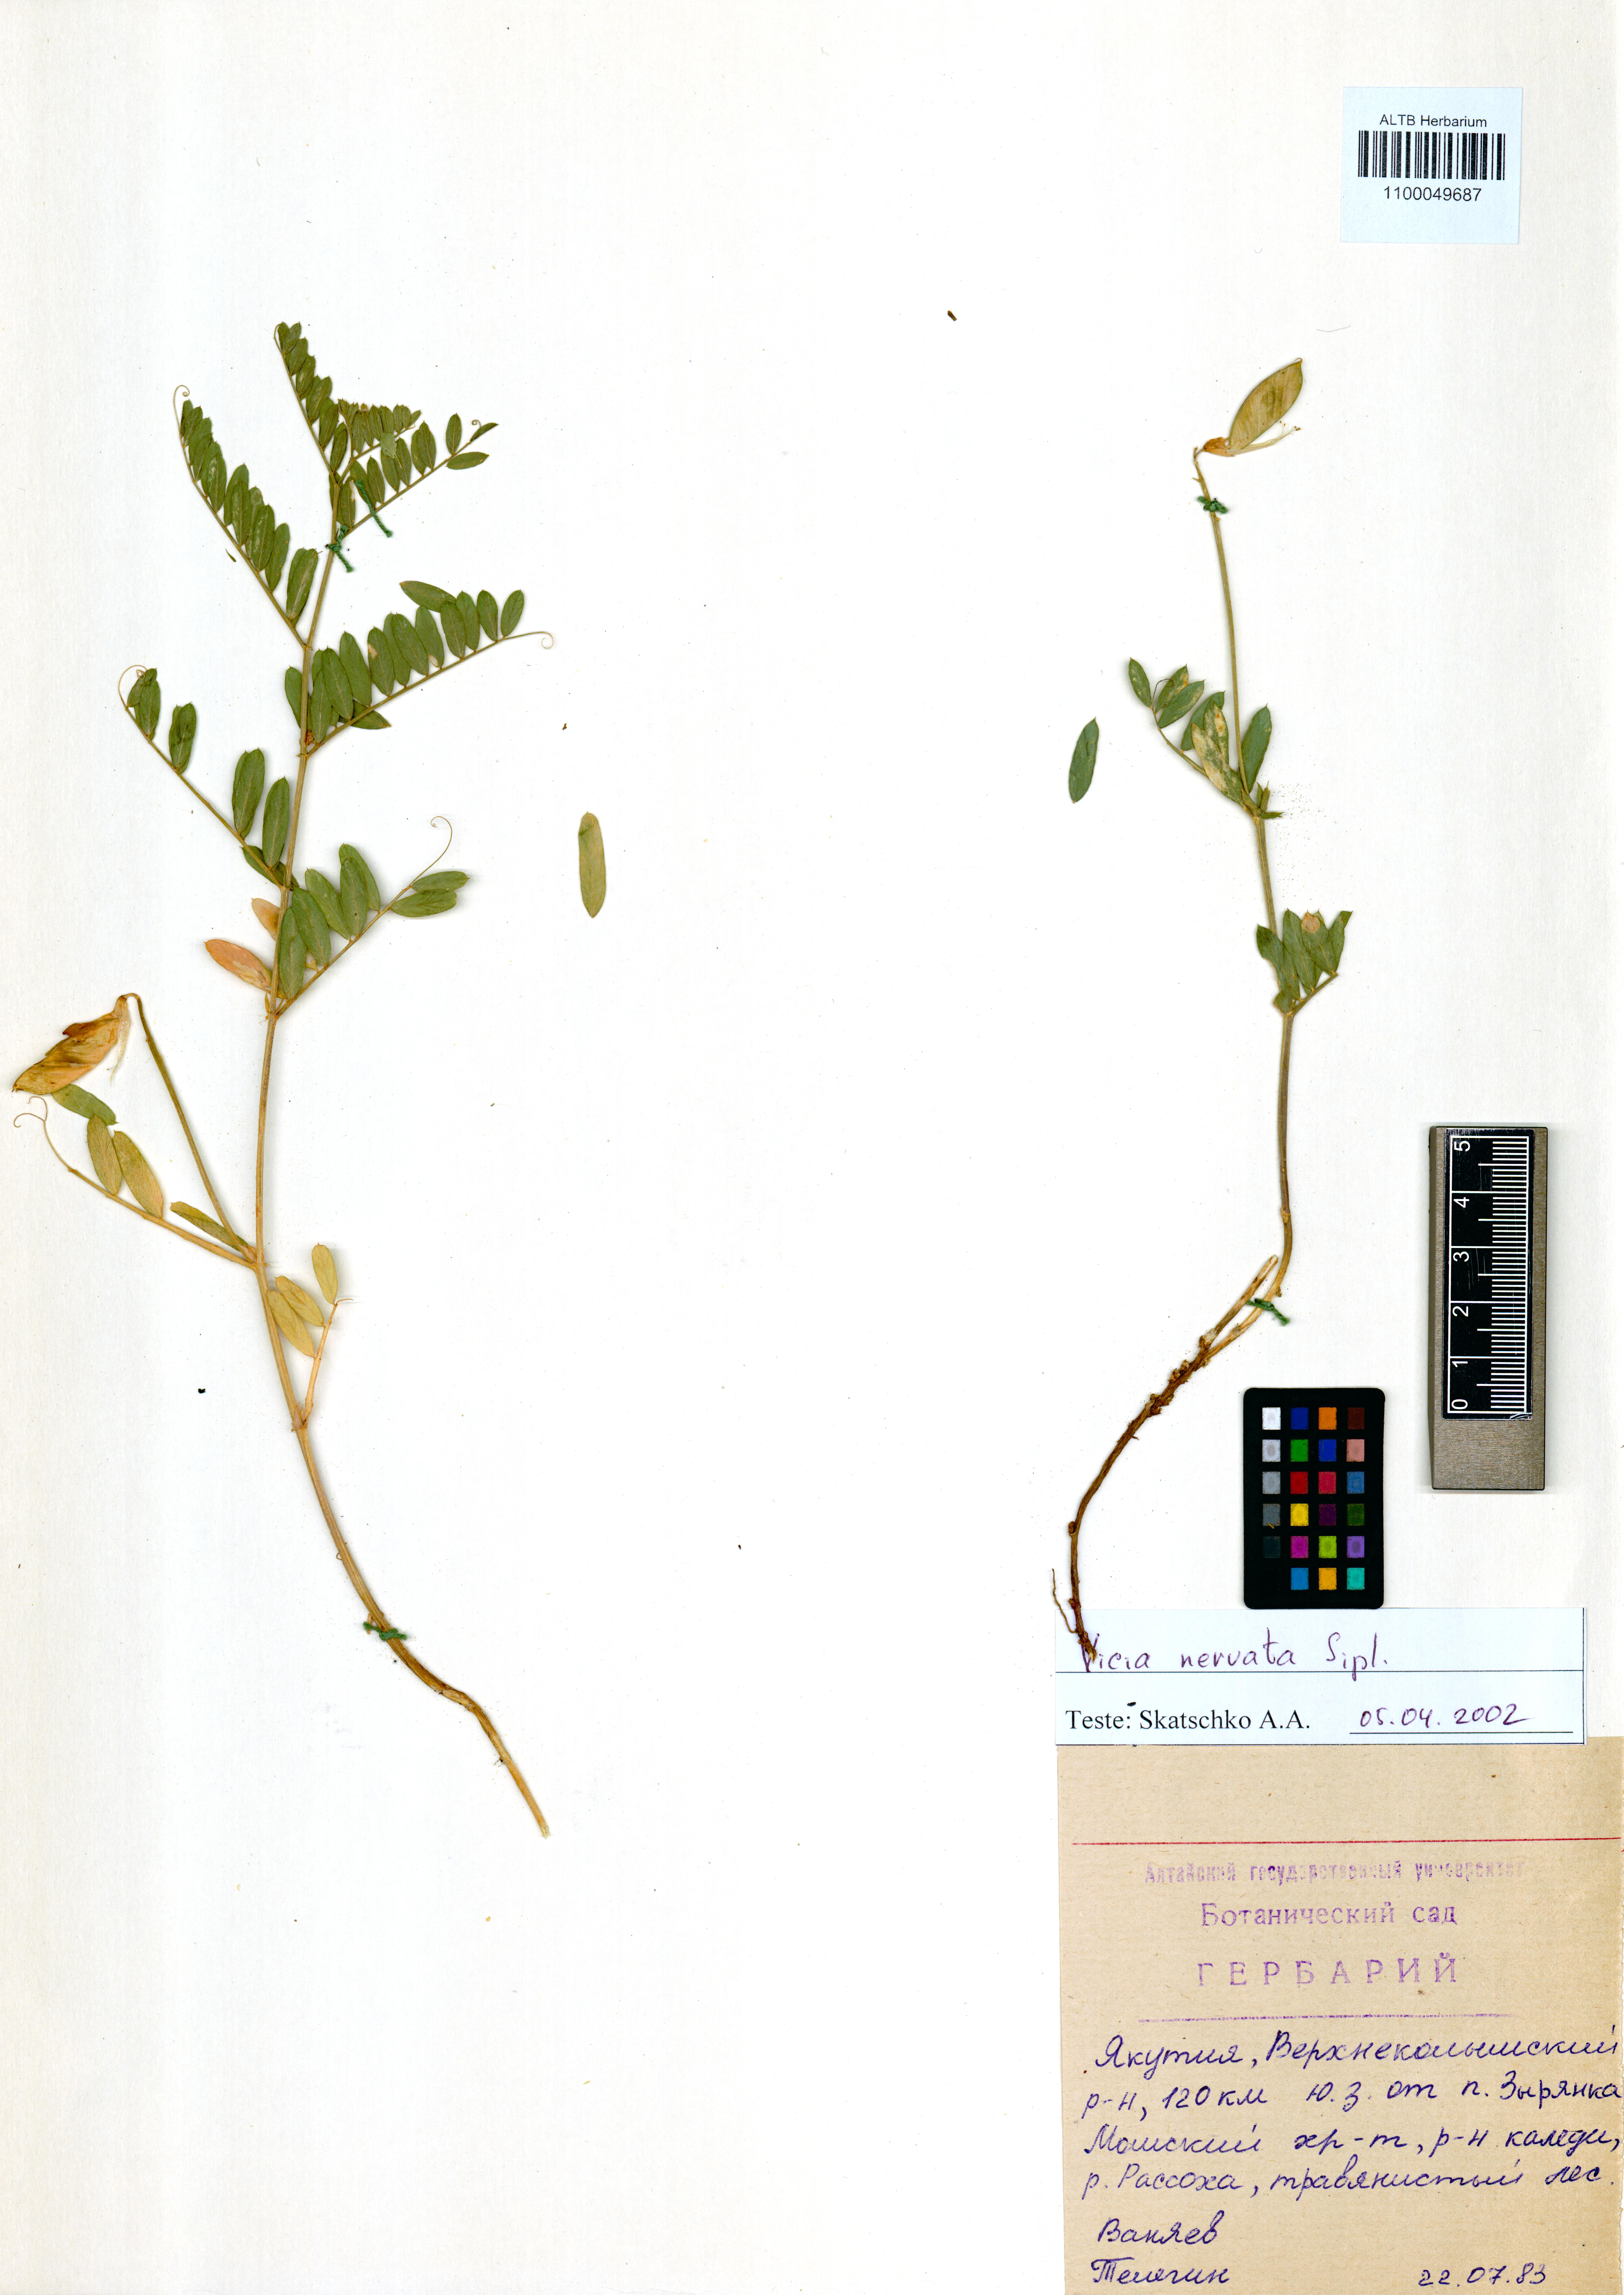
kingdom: Plantae
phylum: Tracheophyta
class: Magnoliopsida
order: Fabales
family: Fabaceae
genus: Vicia
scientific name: Vicia multicaulis
